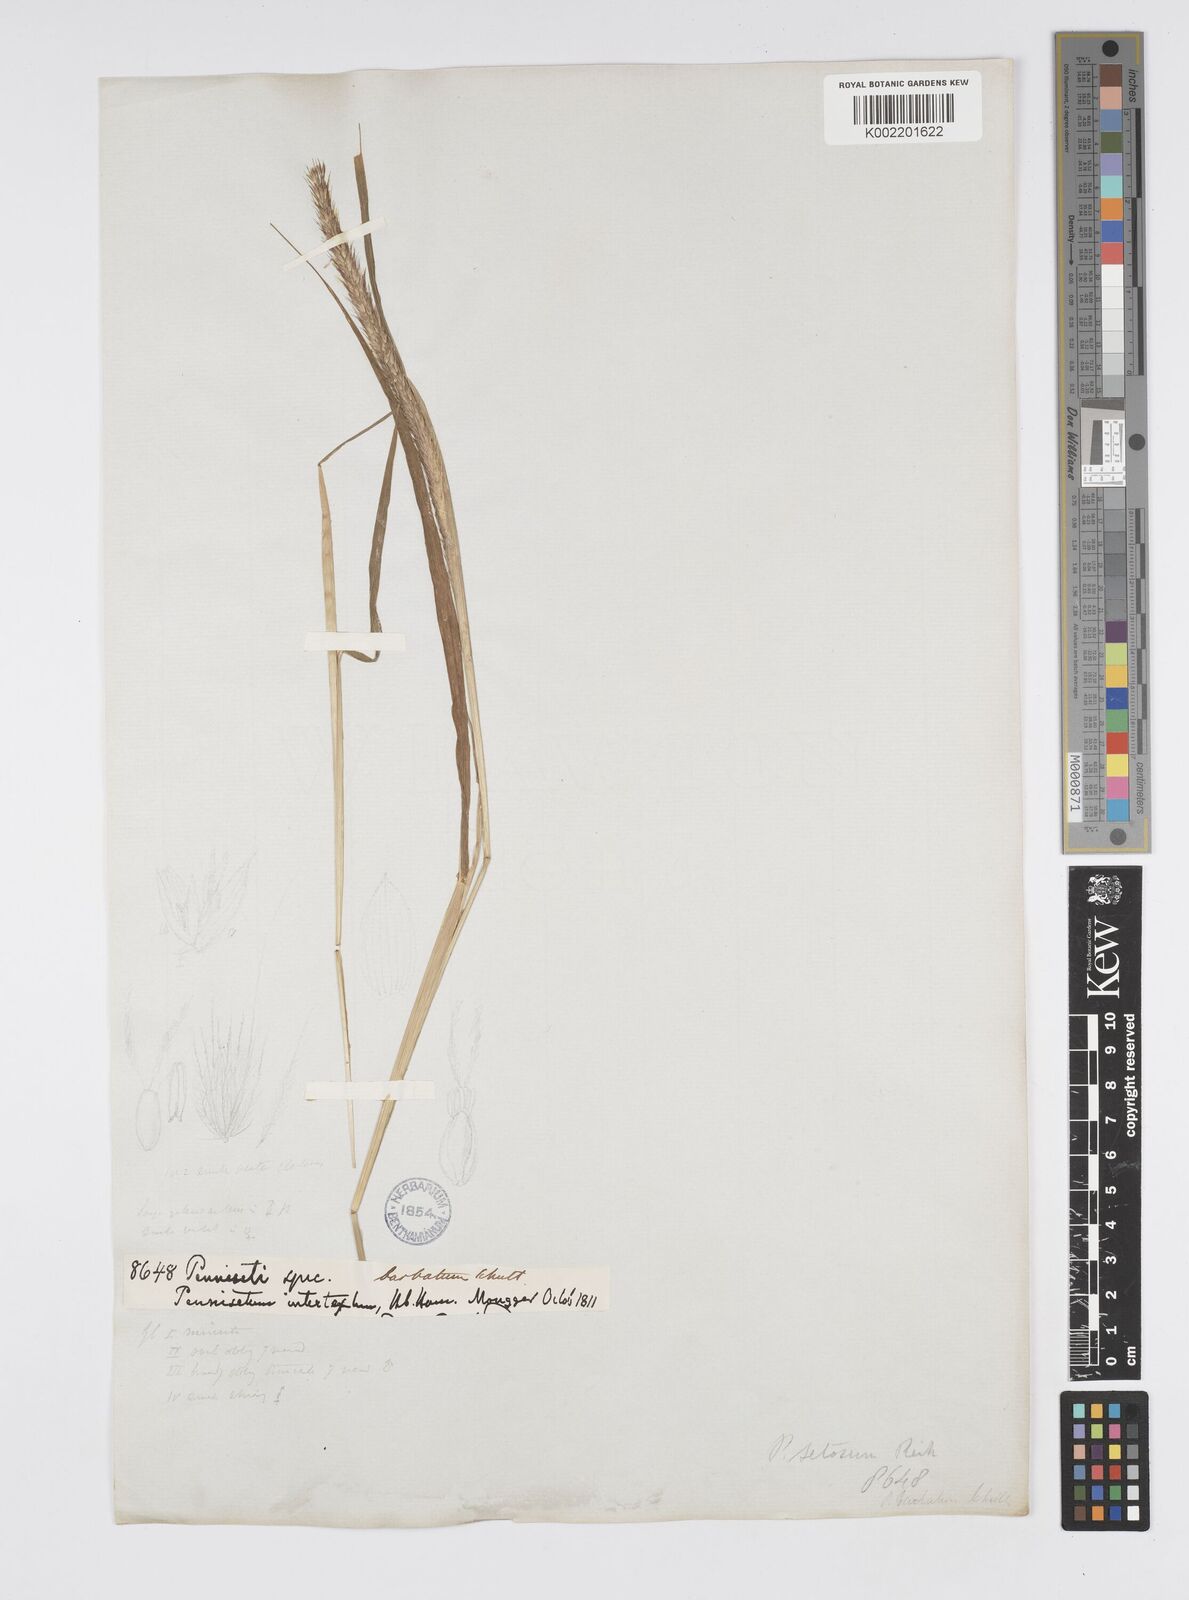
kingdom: Plantae
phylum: Tracheophyta
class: Liliopsida
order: Poales
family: Poaceae
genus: Setaria
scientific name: Setaria parviflora
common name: Knotroot bristle-grass
